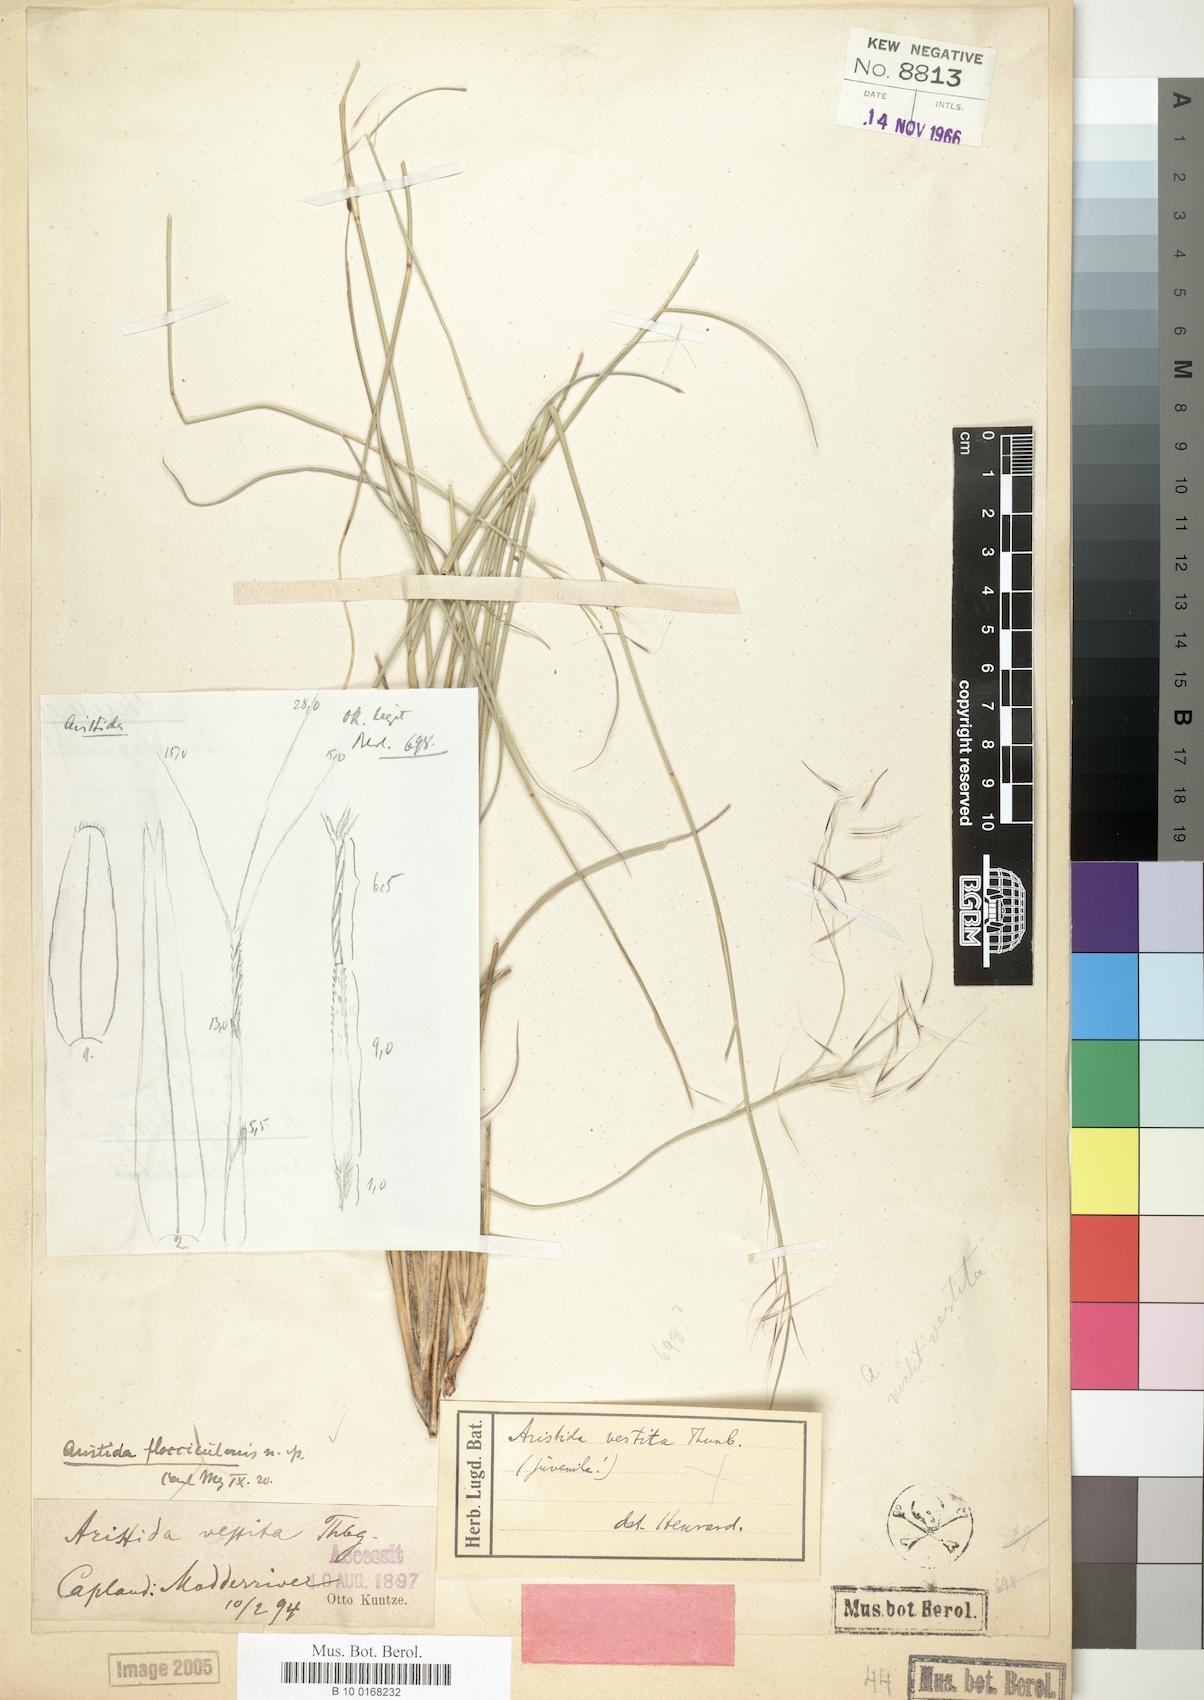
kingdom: Plantae
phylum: Tracheophyta
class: Liliopsida
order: Poales
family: Poaceae
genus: Aristida
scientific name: Aristida vestita
